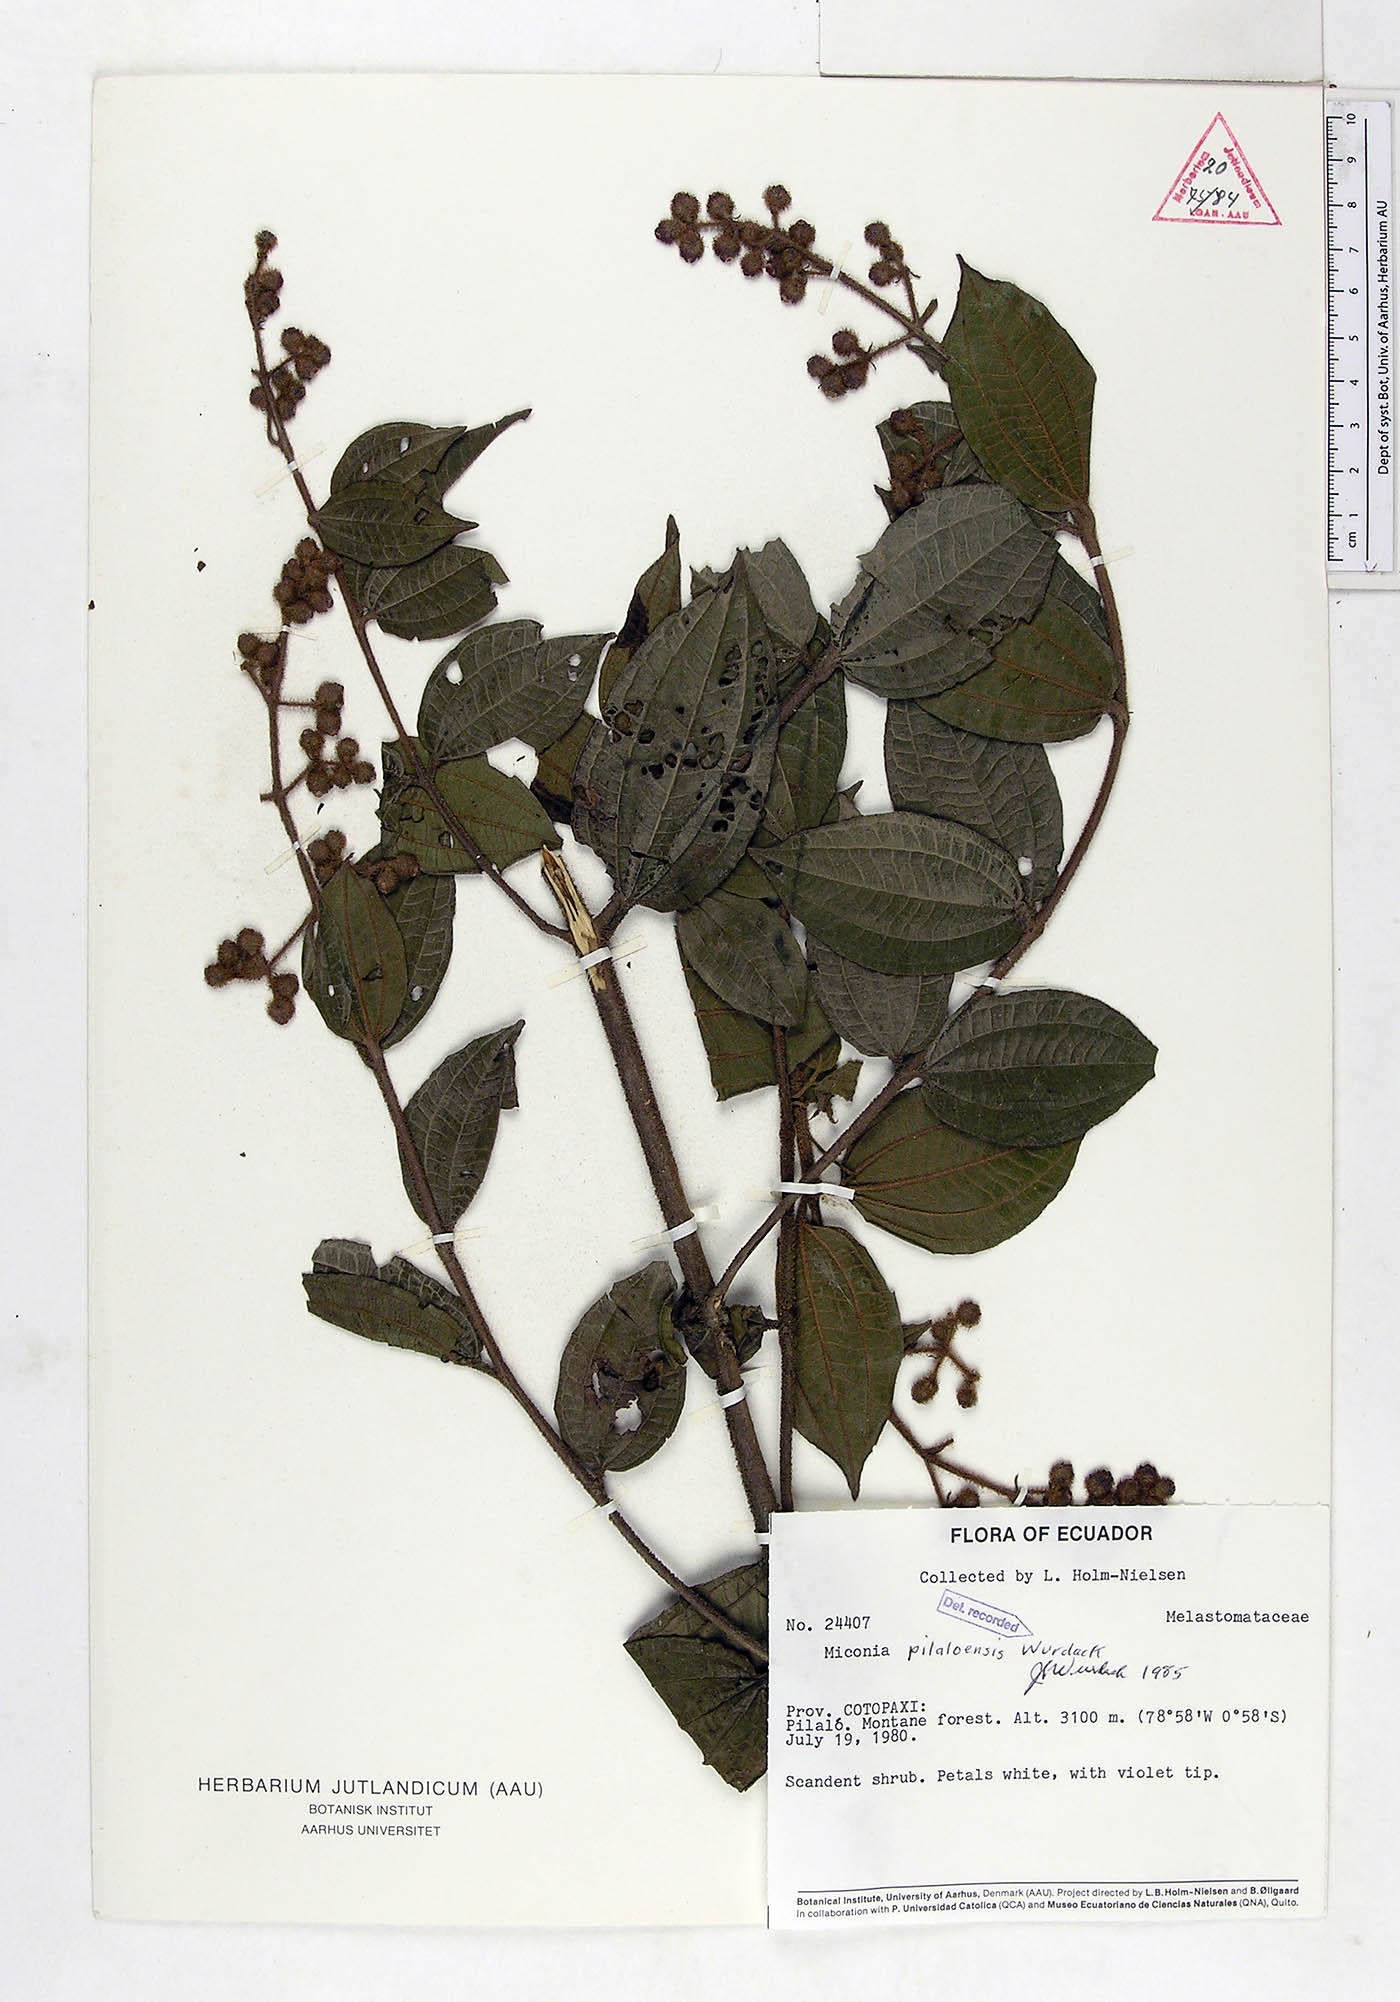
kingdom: Plantae
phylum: Tracheophyta
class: Magnoliopsida
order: Myrtales
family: Melastomataceae
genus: Miconia
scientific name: Miconia pilaloensis
